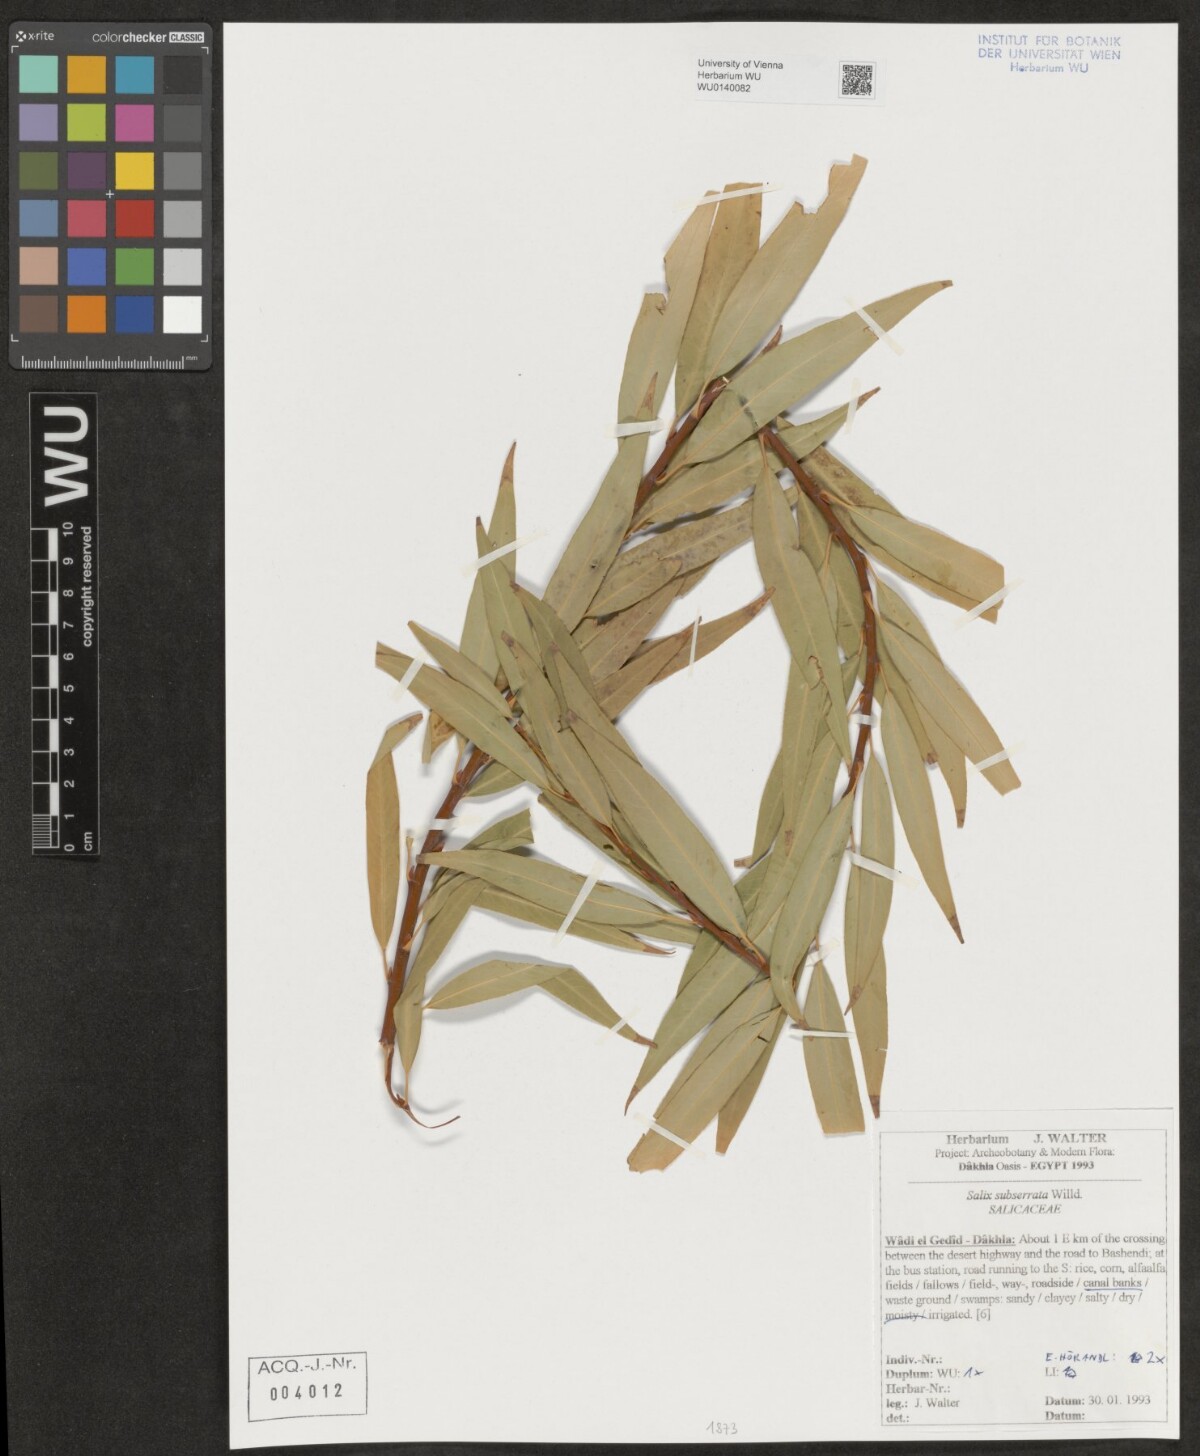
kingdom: Plantae
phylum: Tracheophyta
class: Magnoliopsida
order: Malpighiales
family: Salicaceae
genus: Salix
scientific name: Salix mucronata
